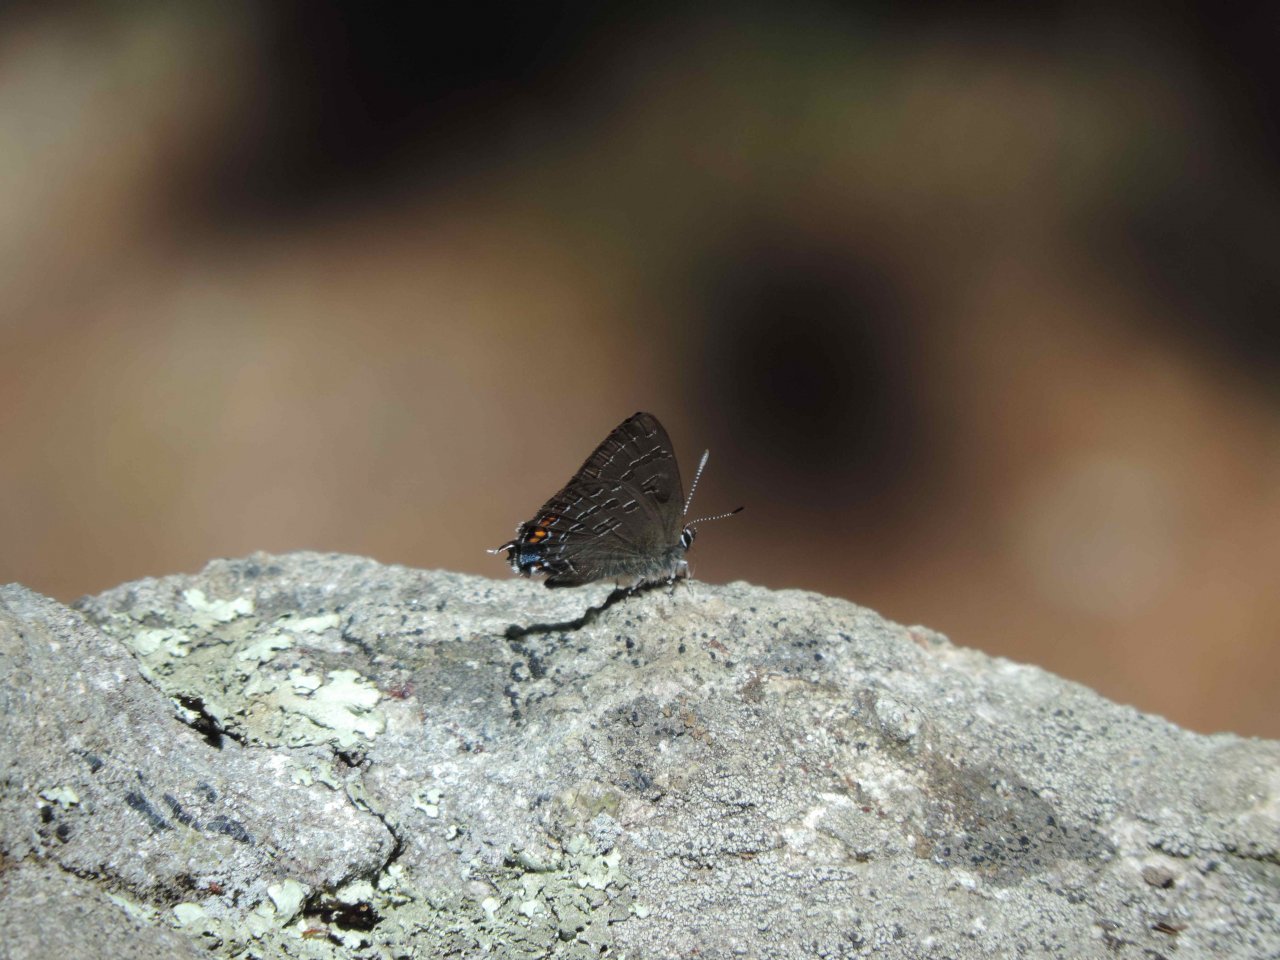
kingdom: Animalia
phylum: Arthropoda
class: Insecta
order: Lepidoptera
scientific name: Lepidoptera
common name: Butterflies
